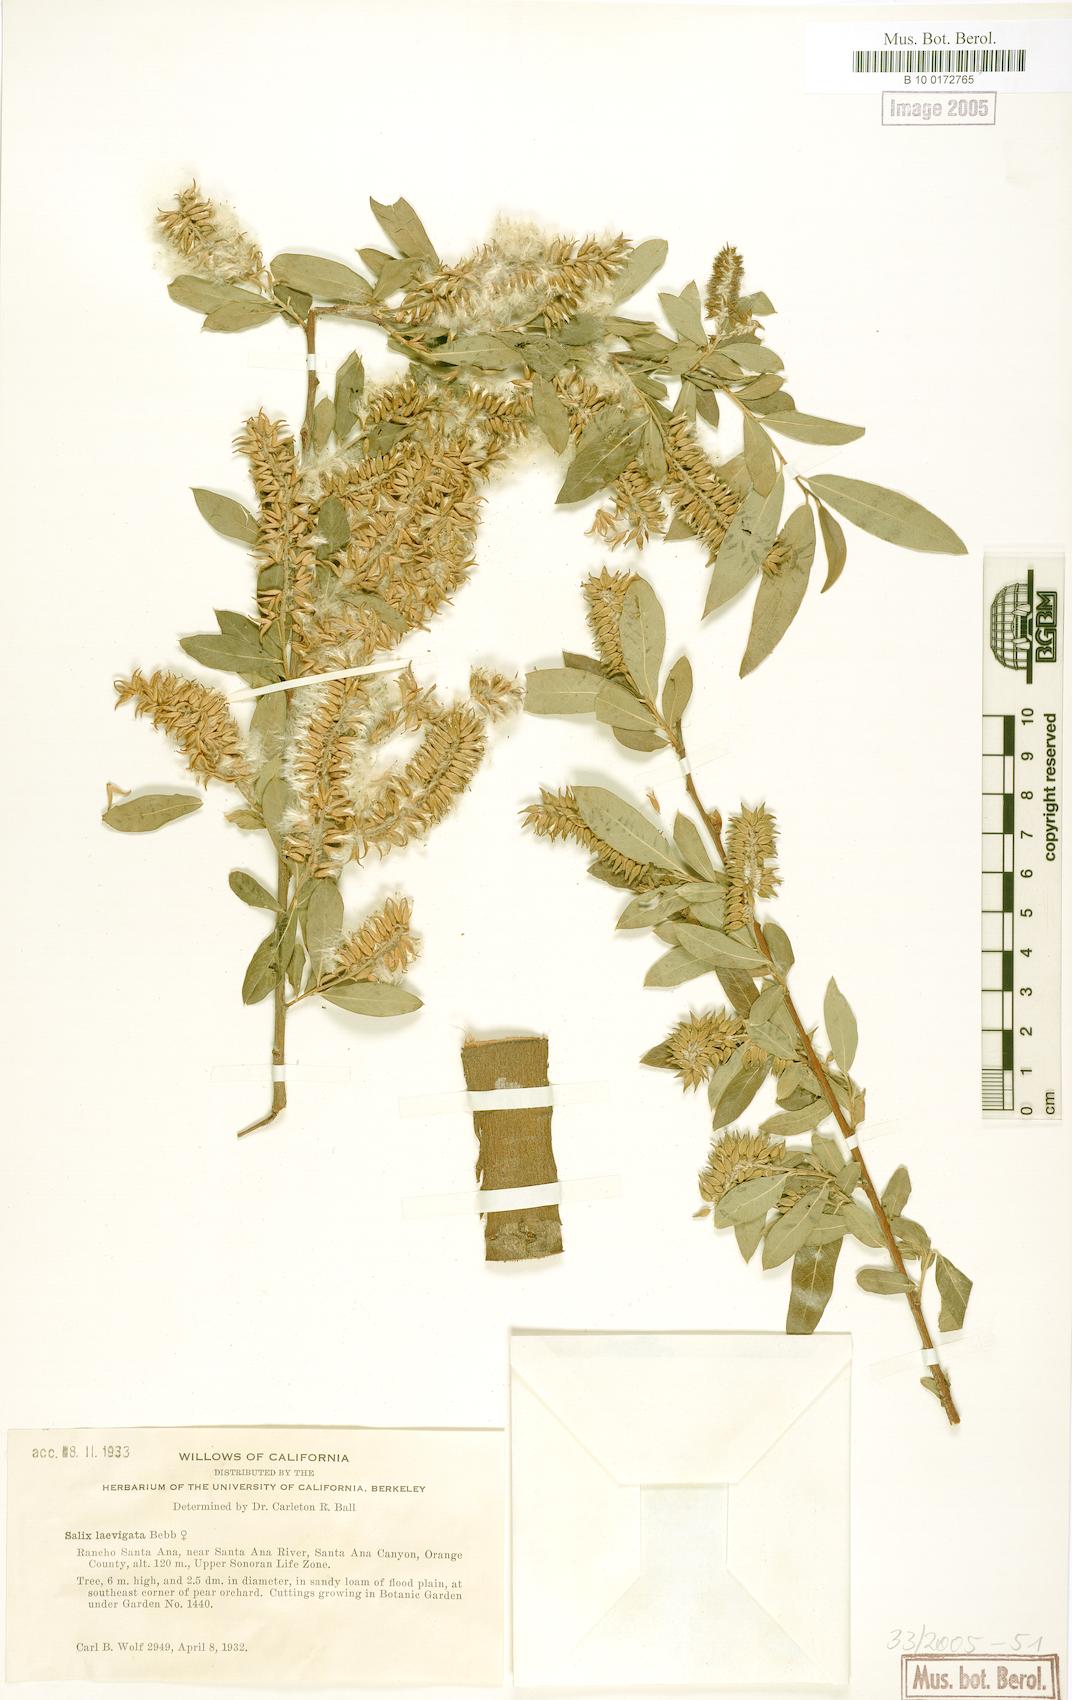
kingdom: Plantae
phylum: Tracheophyta
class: Magnoliopsida
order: Malpighiales
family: Salicaceae
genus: Salix
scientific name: Salix laevigata
